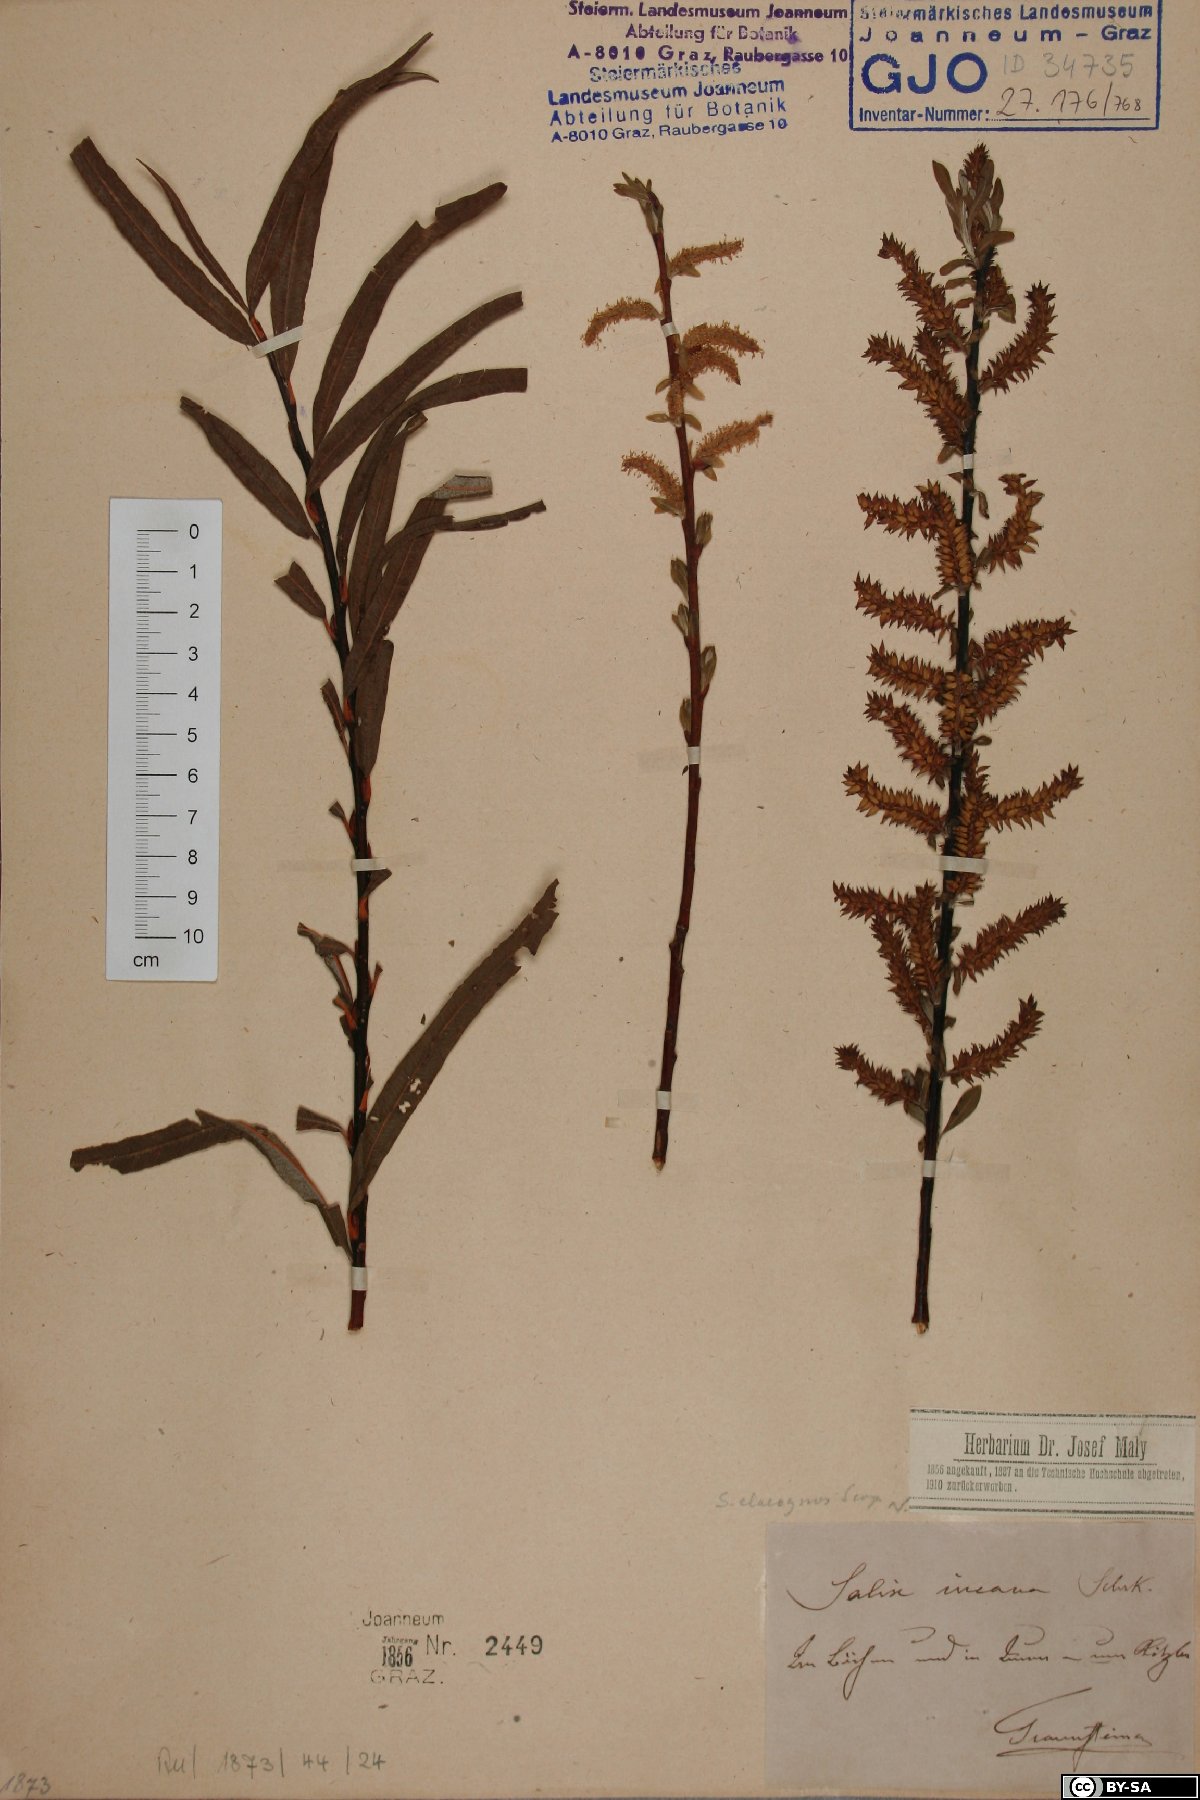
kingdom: Plantae
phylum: Tracheophyta
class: Magnoliopsida
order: Malpighiales
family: Salicaceae
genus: Salix
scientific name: Salix eleagnos
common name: Elaeagnus willow
